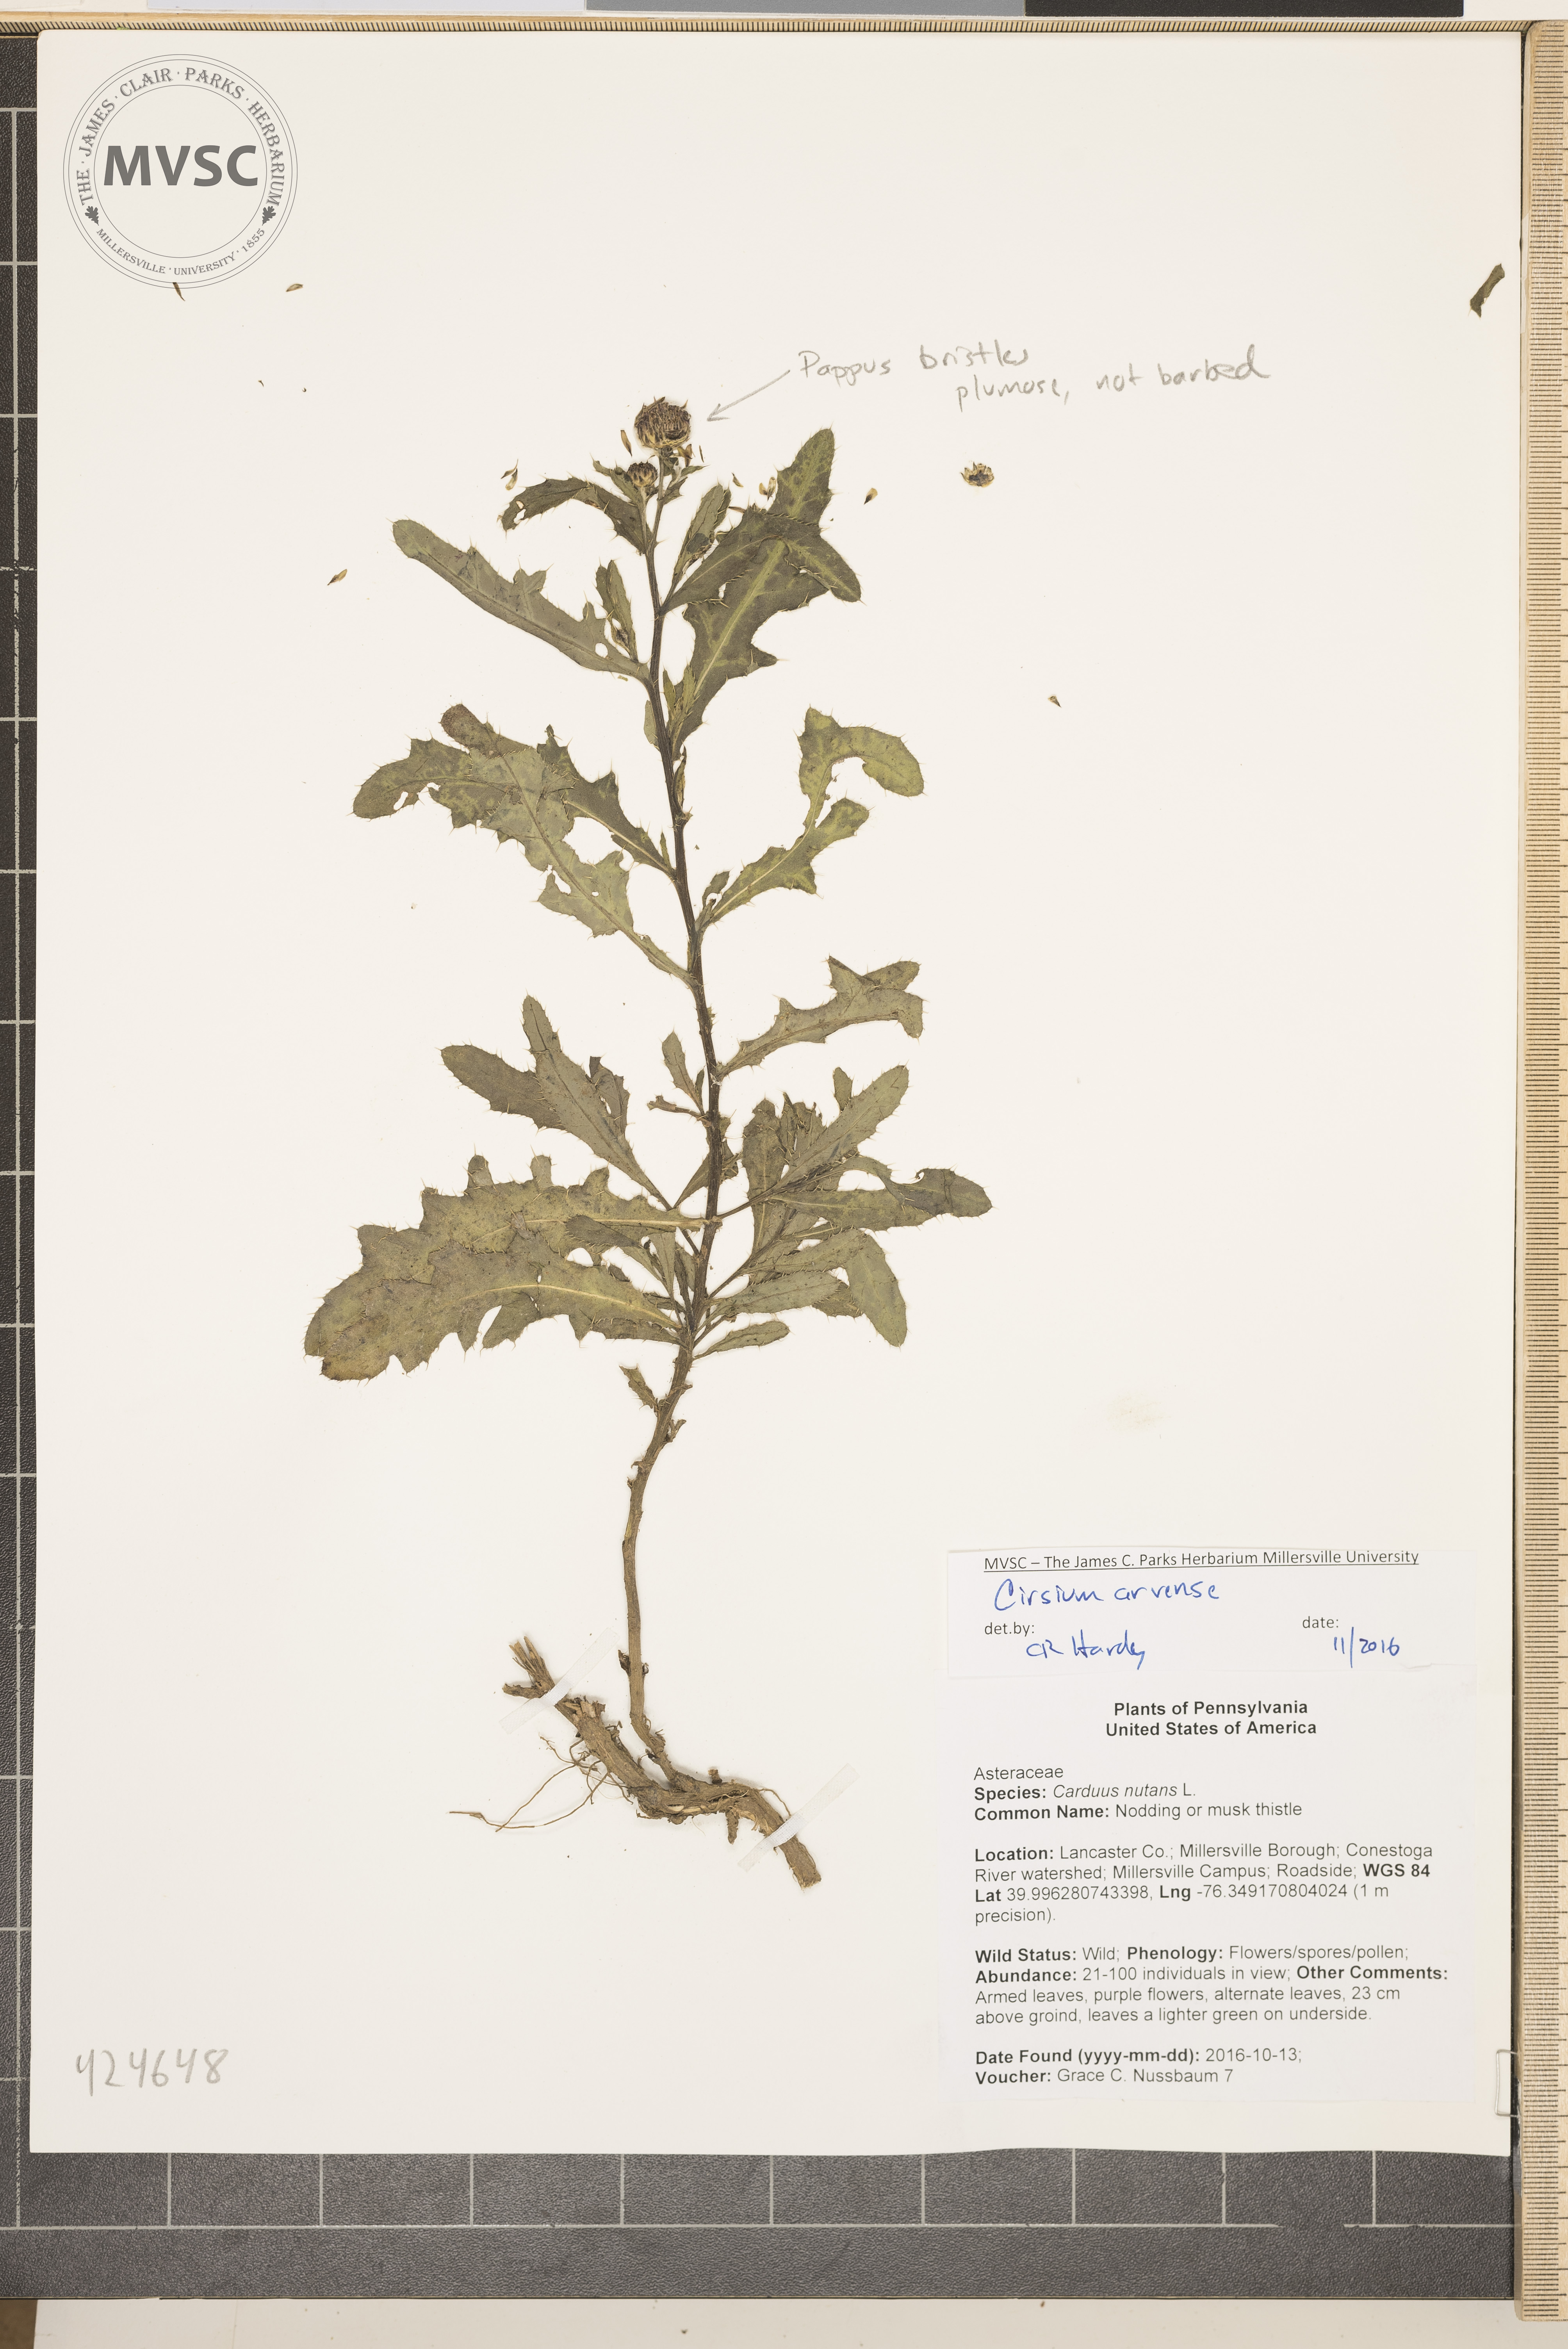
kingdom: Plantae
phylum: Tracheophyta
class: Magnoliopsida
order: Asterales
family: Asteraceae
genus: Cirsium
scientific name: Cirsium arvense
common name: Canada thistle
